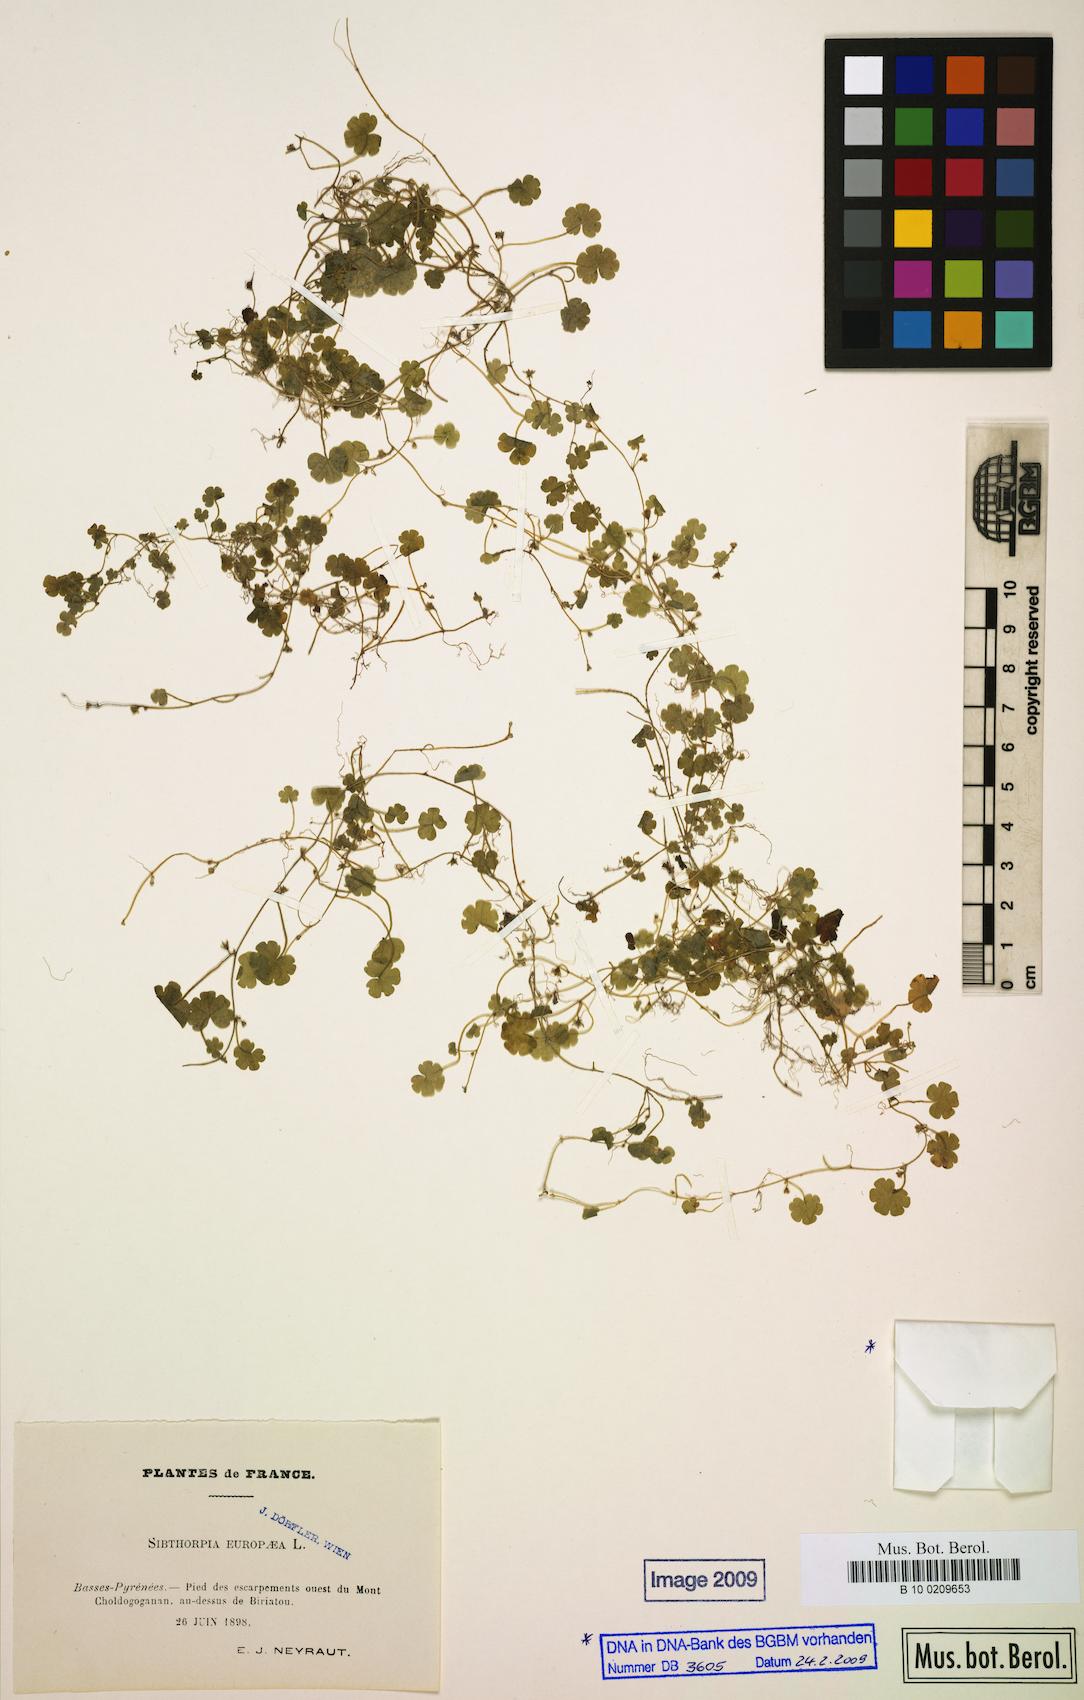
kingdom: Plantae
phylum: Tracheophyta
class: Magnoliopsida
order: Lamiales
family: Plantaginaceae
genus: Sibthorpia
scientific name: Sibthorpia europaea
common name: Cornish moneywort
